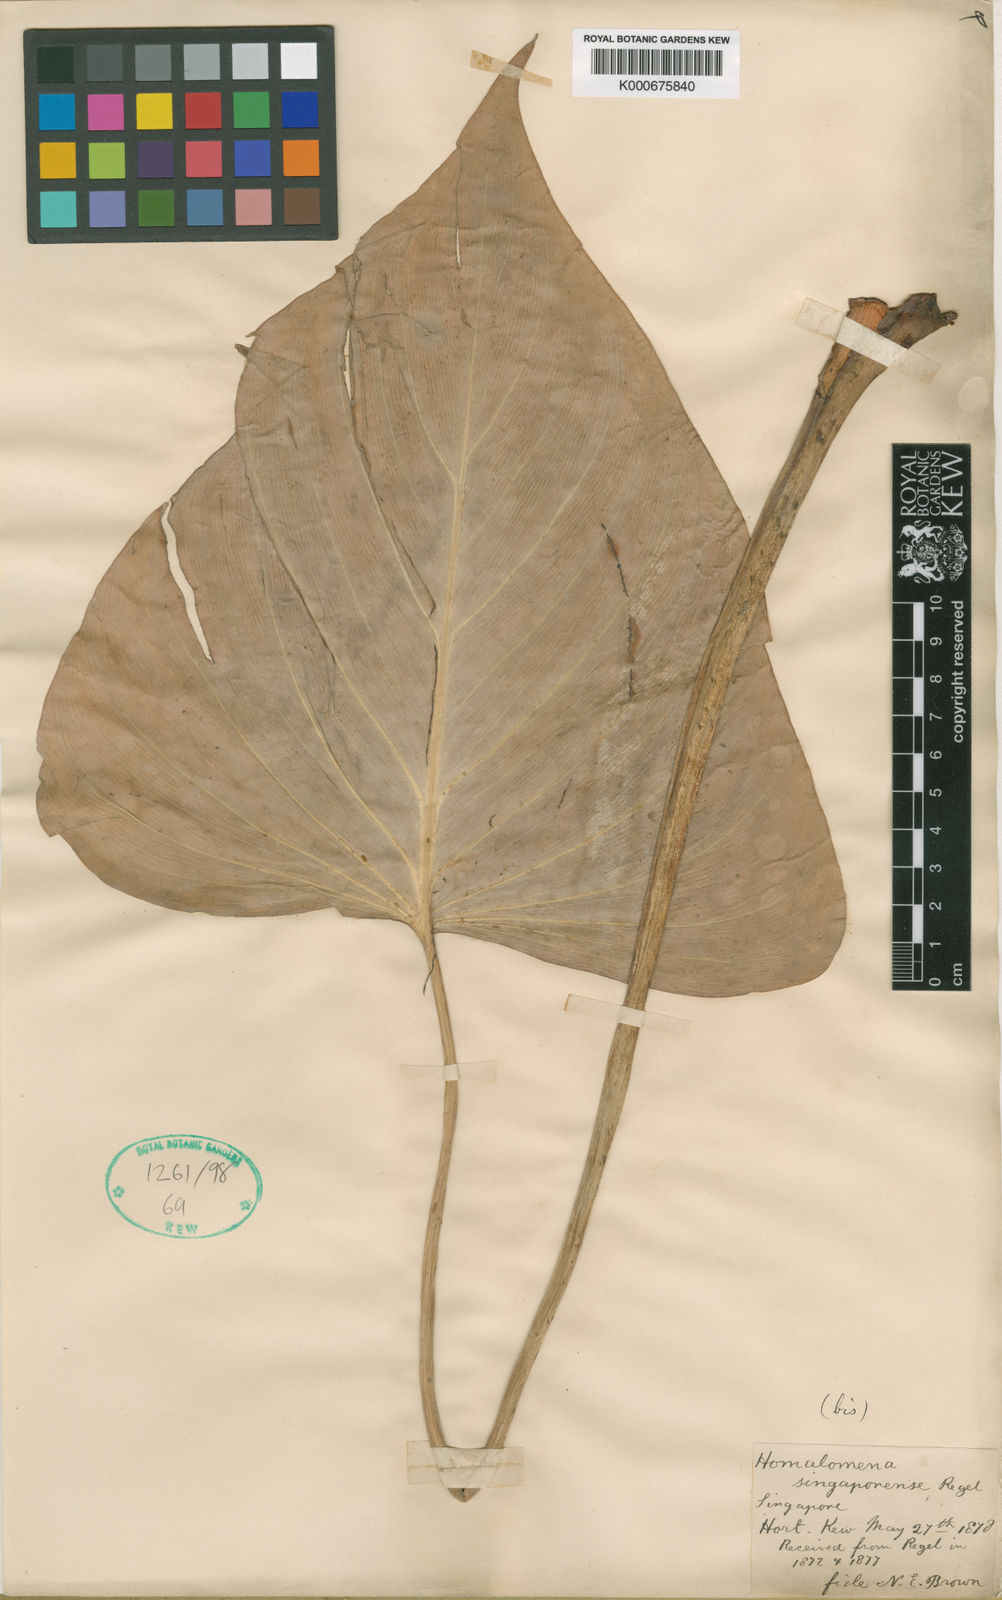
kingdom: Plantae
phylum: Tracheophyta
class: Liliopsida
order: Alismatales
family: Araceae
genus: Homalomena
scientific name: Homalomena singaporensis
